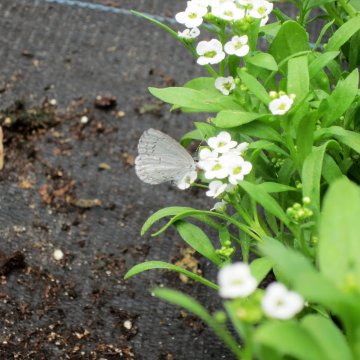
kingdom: Animalia
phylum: Arthropoda
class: Insecta
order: Lepidoptera
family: Lycaenidae
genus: Cyaniris
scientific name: Cyaniris neglecta
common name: Summer Azure
